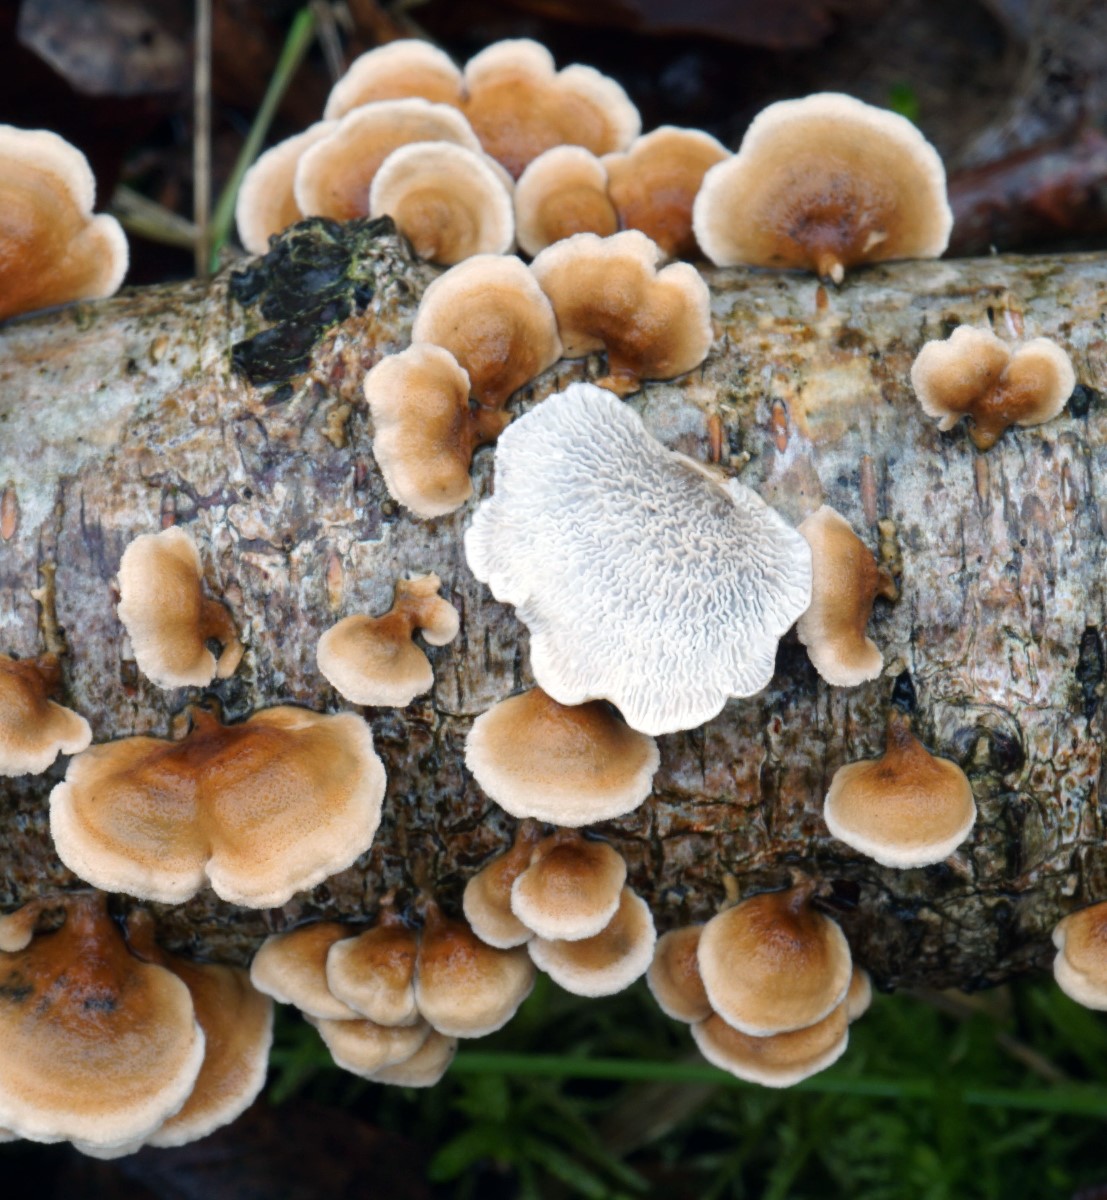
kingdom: Fungi
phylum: Basidiomycota
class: Agaricomycetes
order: Amylocorticiales
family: Amylocorticiaceae
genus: Plicaturopsis
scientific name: Plicaturopsis crispa
